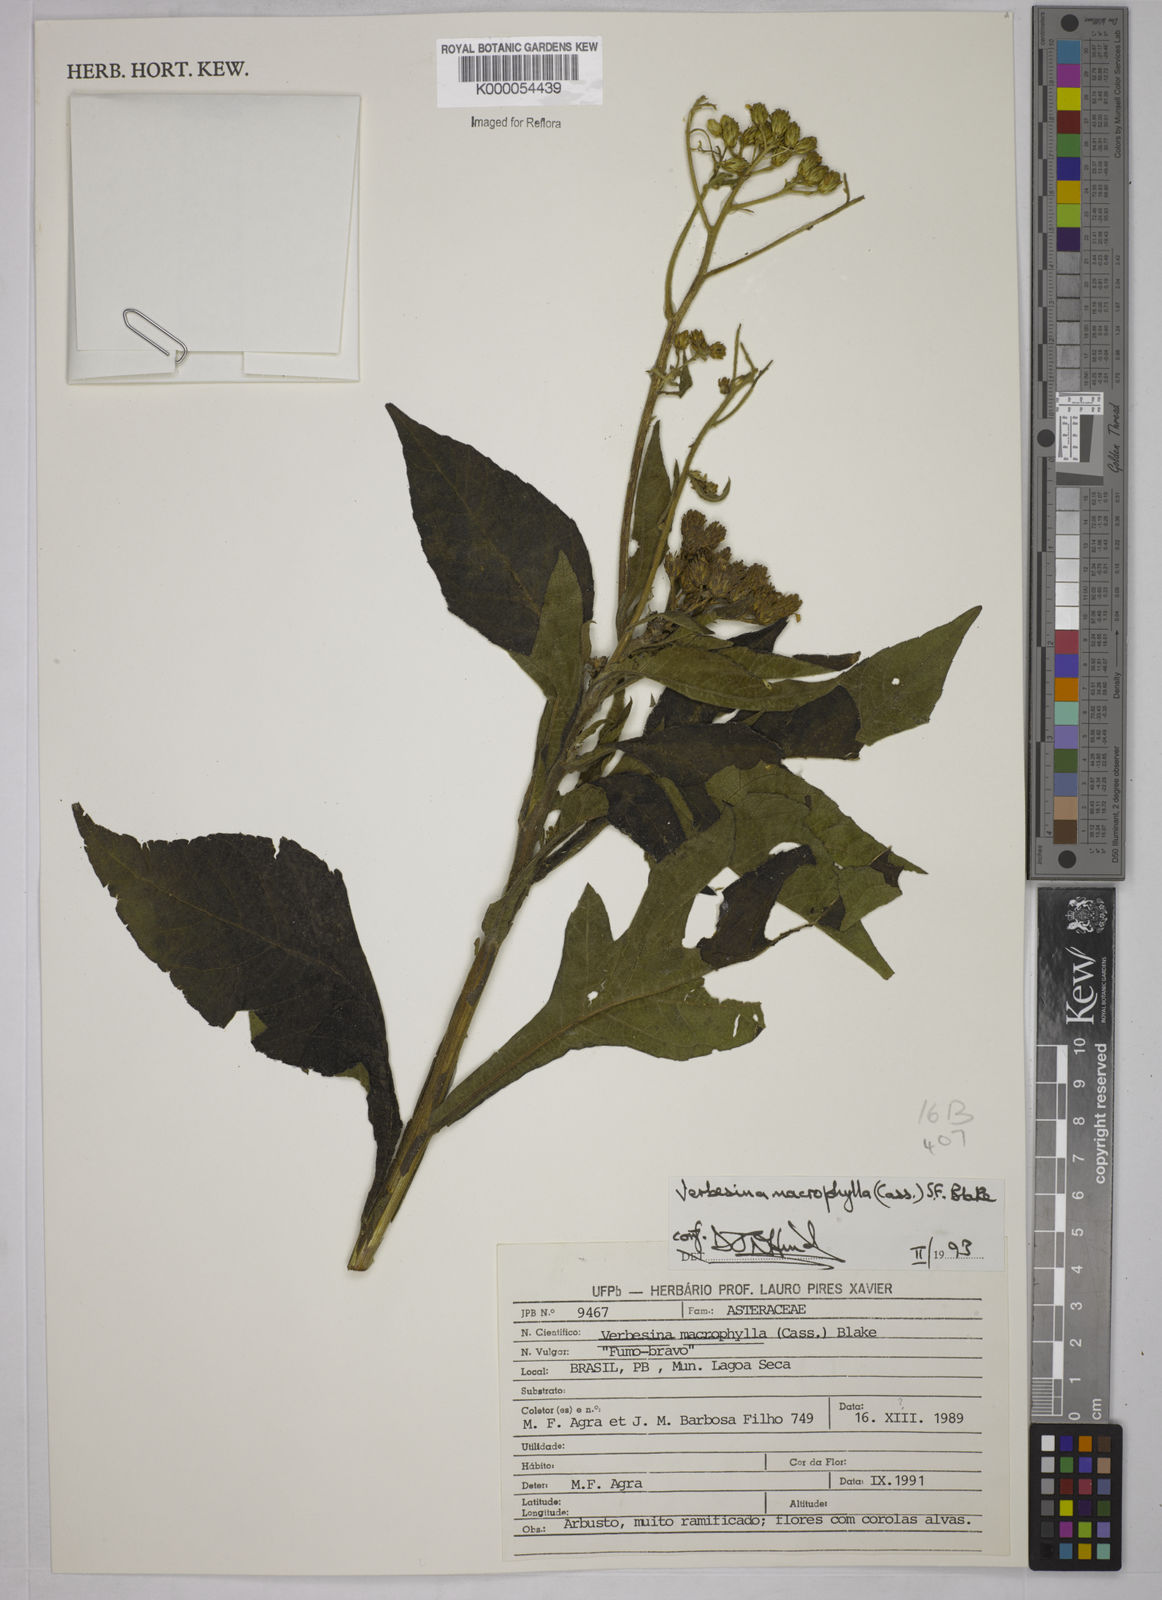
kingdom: Plantae
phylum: Tracheophyta
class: Magnoliopsida
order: Asterales
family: Asteraceae
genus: Verbesina
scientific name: Verbesina macrophylla
